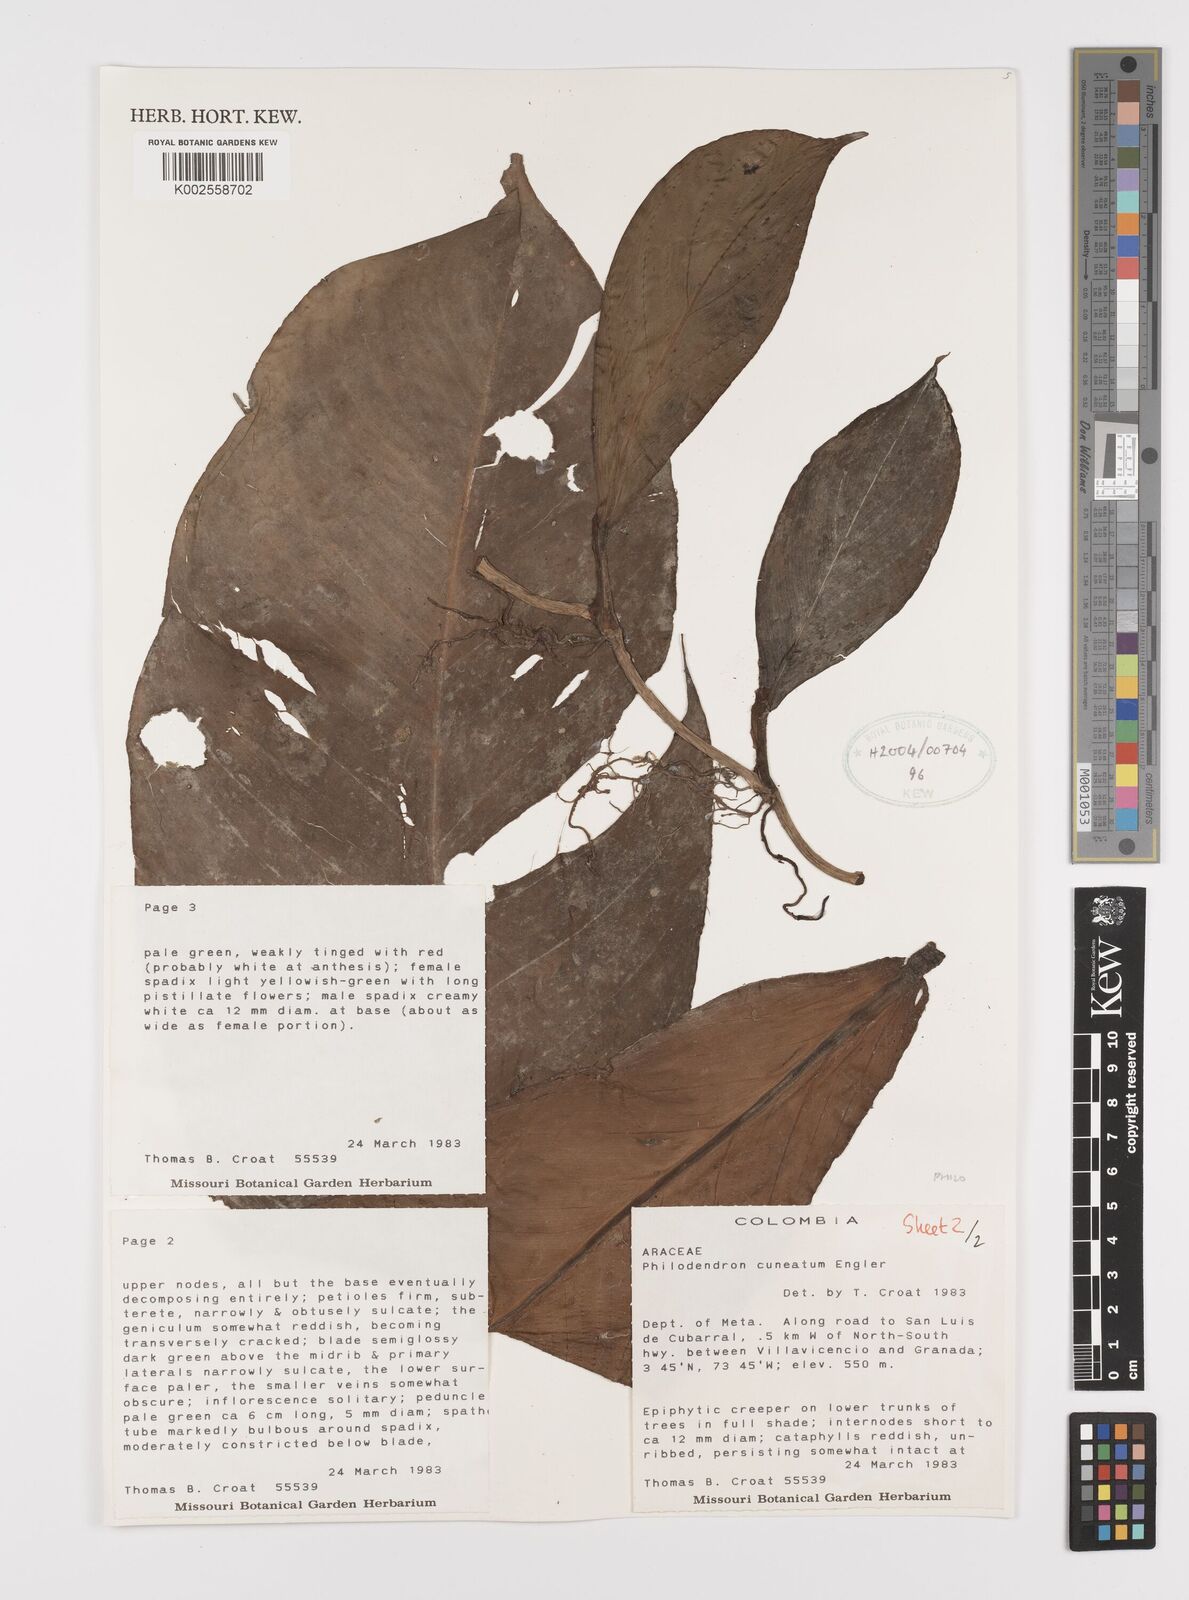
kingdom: Plantae
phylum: Tracheophyta
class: Liliopsida
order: Alismatales
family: Araceae
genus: Philodendron
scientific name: Philodendron cuneatum
